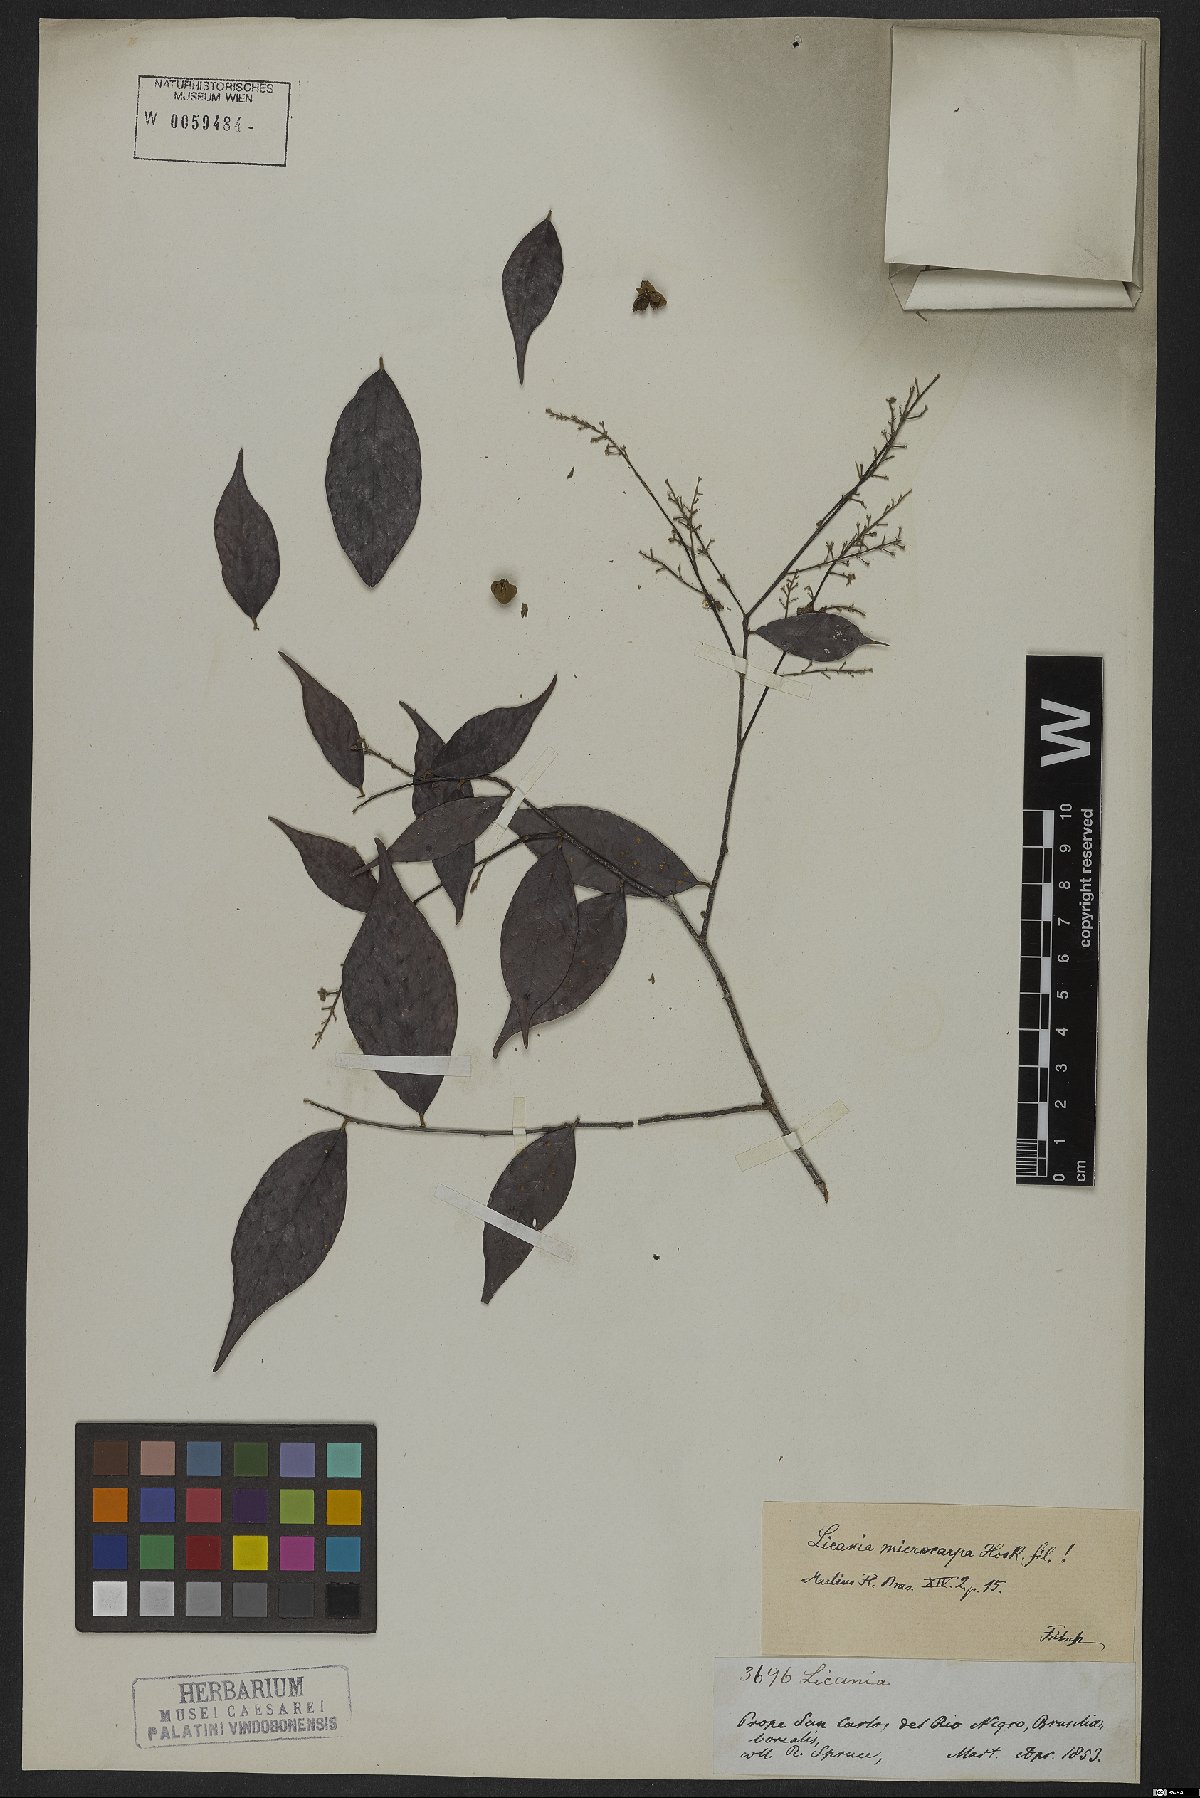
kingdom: Plantae
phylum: Tracheophyta
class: Magnoliopsida
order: Malpighiales
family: Chrysobalanaceae
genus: Licania
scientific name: Licania hypoleuca
